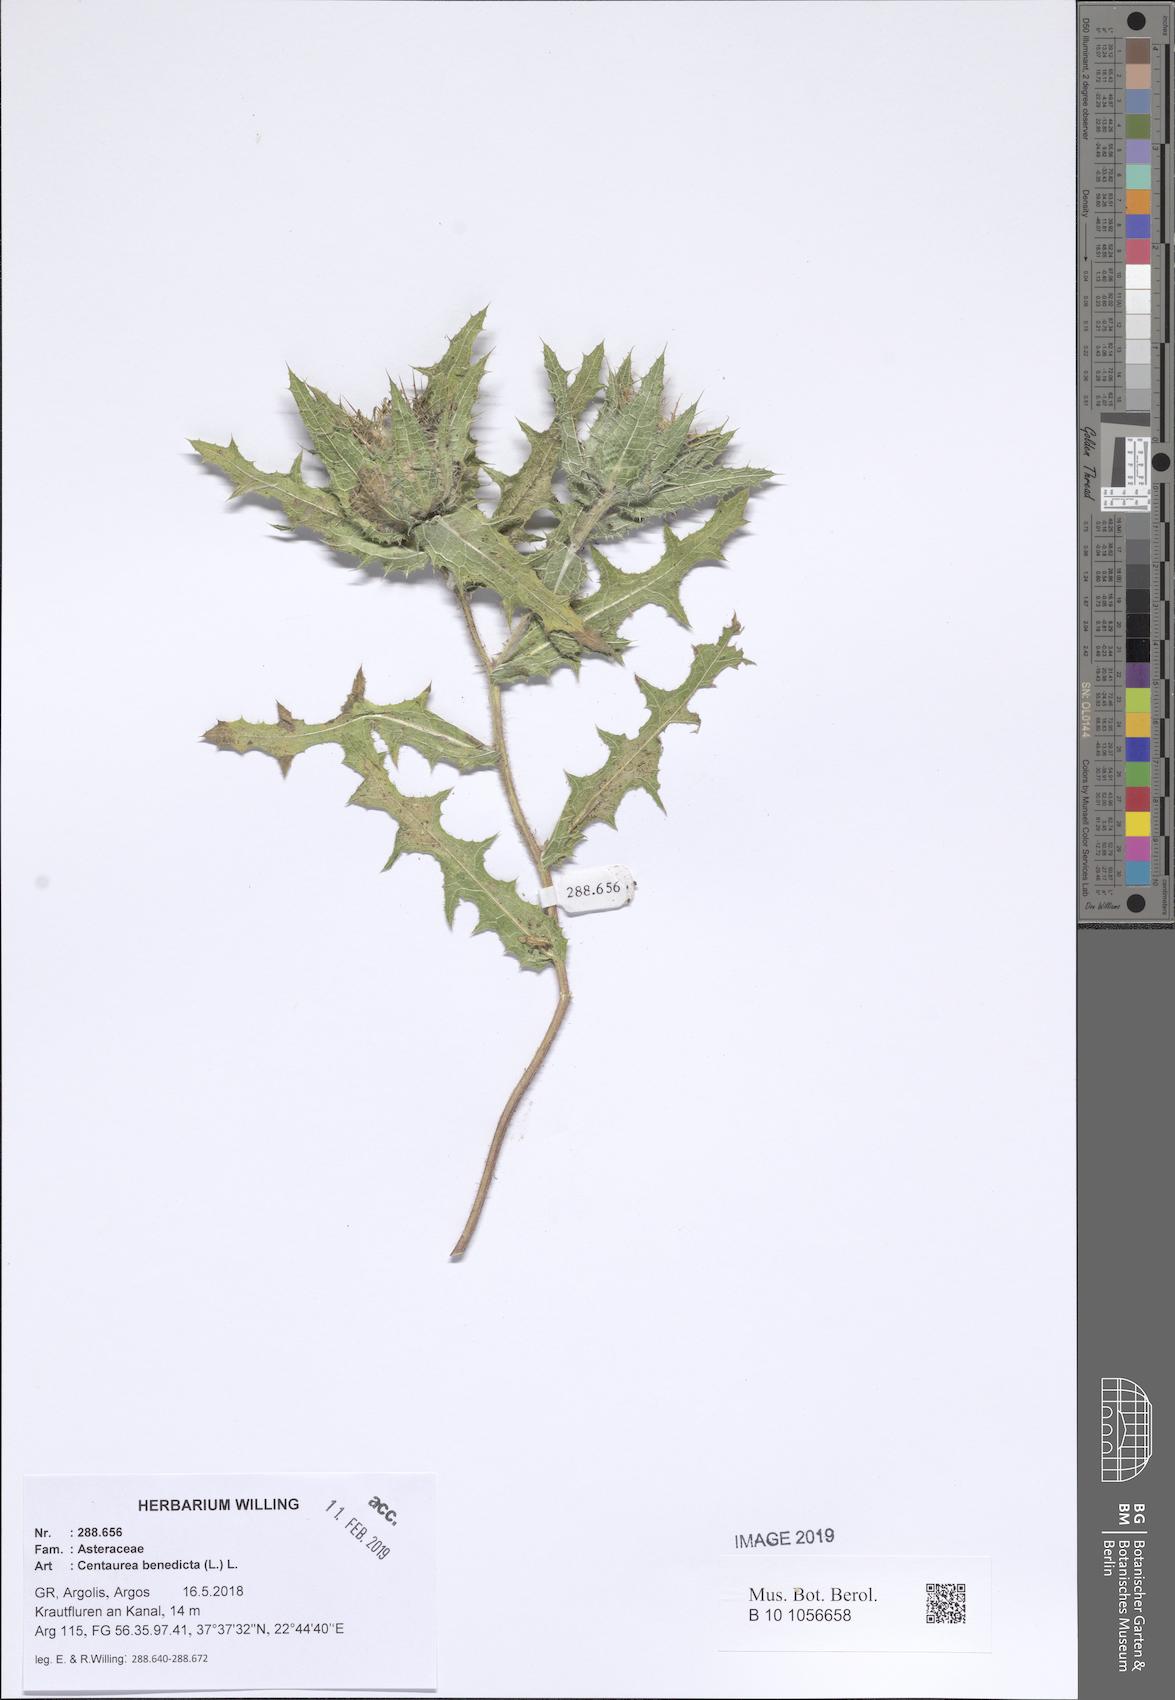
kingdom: Plantae
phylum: Tracheophyta
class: Magnoliopsida
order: Asterales
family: Asteraceae
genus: Centaurea
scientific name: Centaurea benedicta
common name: Blessed thistle
